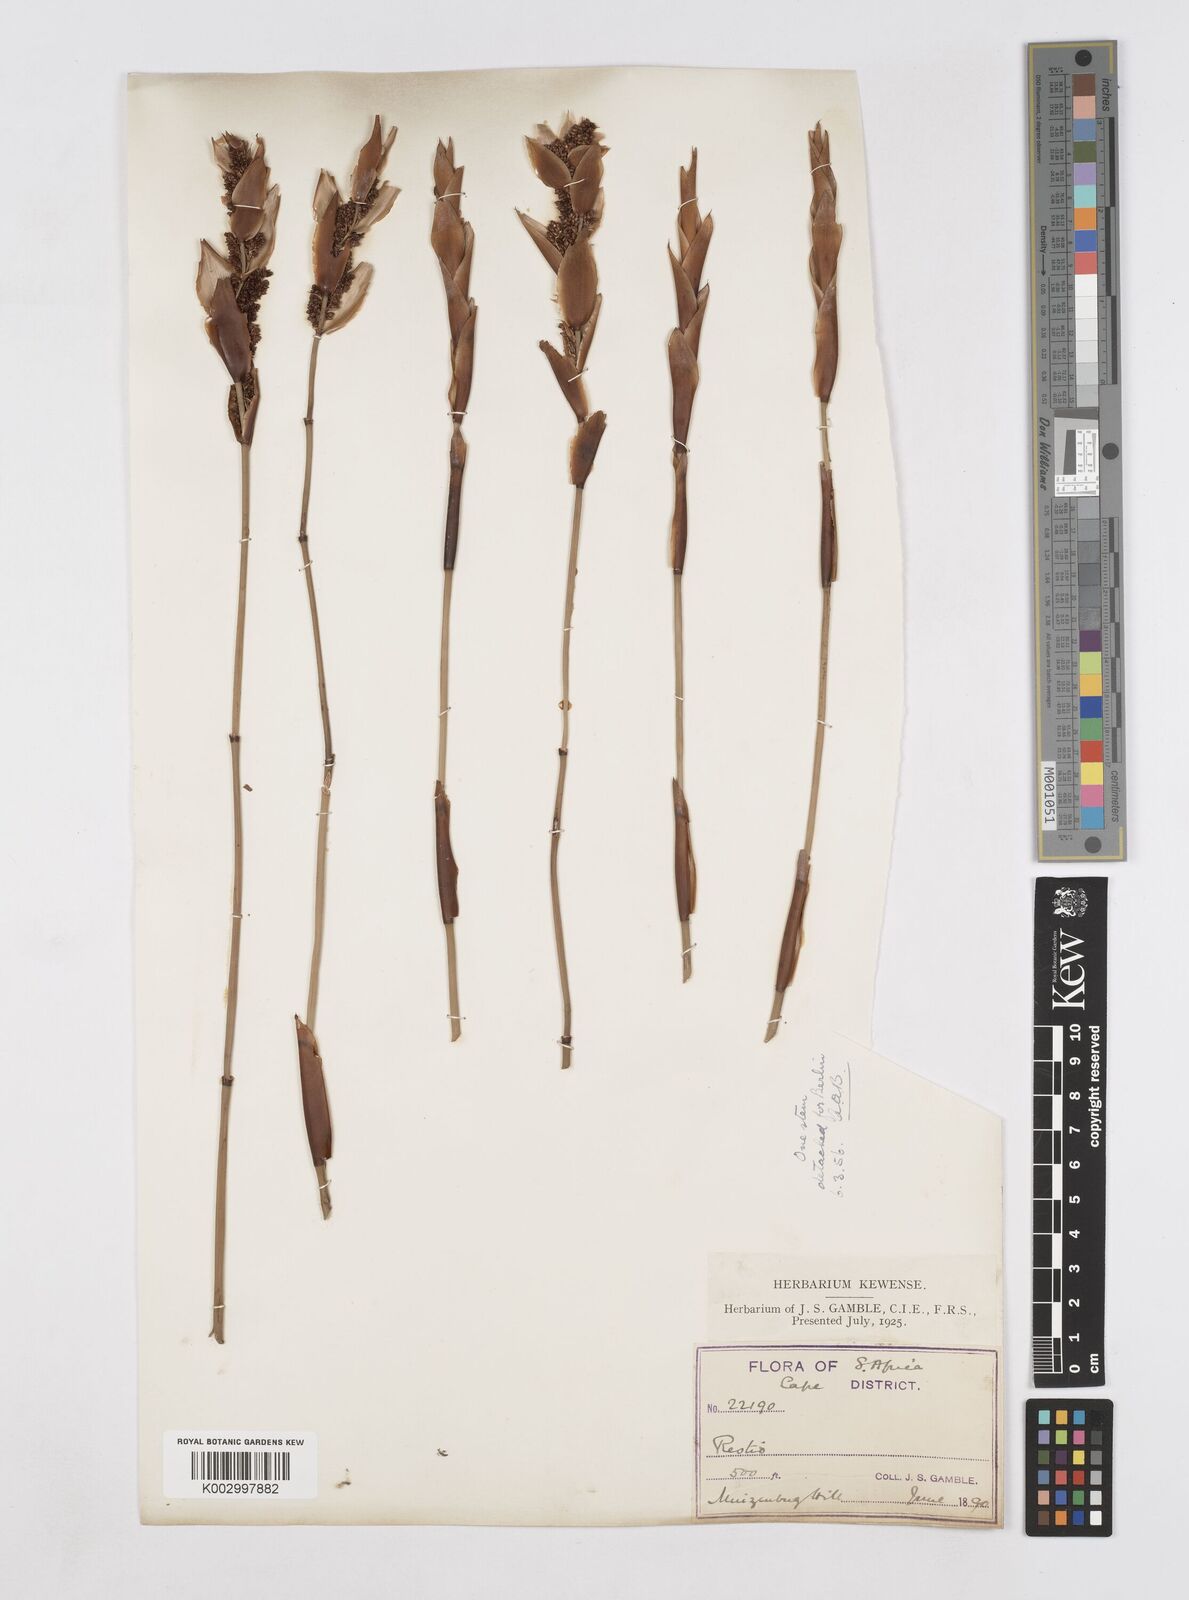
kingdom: Plantae
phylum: Tracheophyta
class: Liliopsida
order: Poales
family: Restionaceae
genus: Elegia
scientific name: Elegia racemosa
